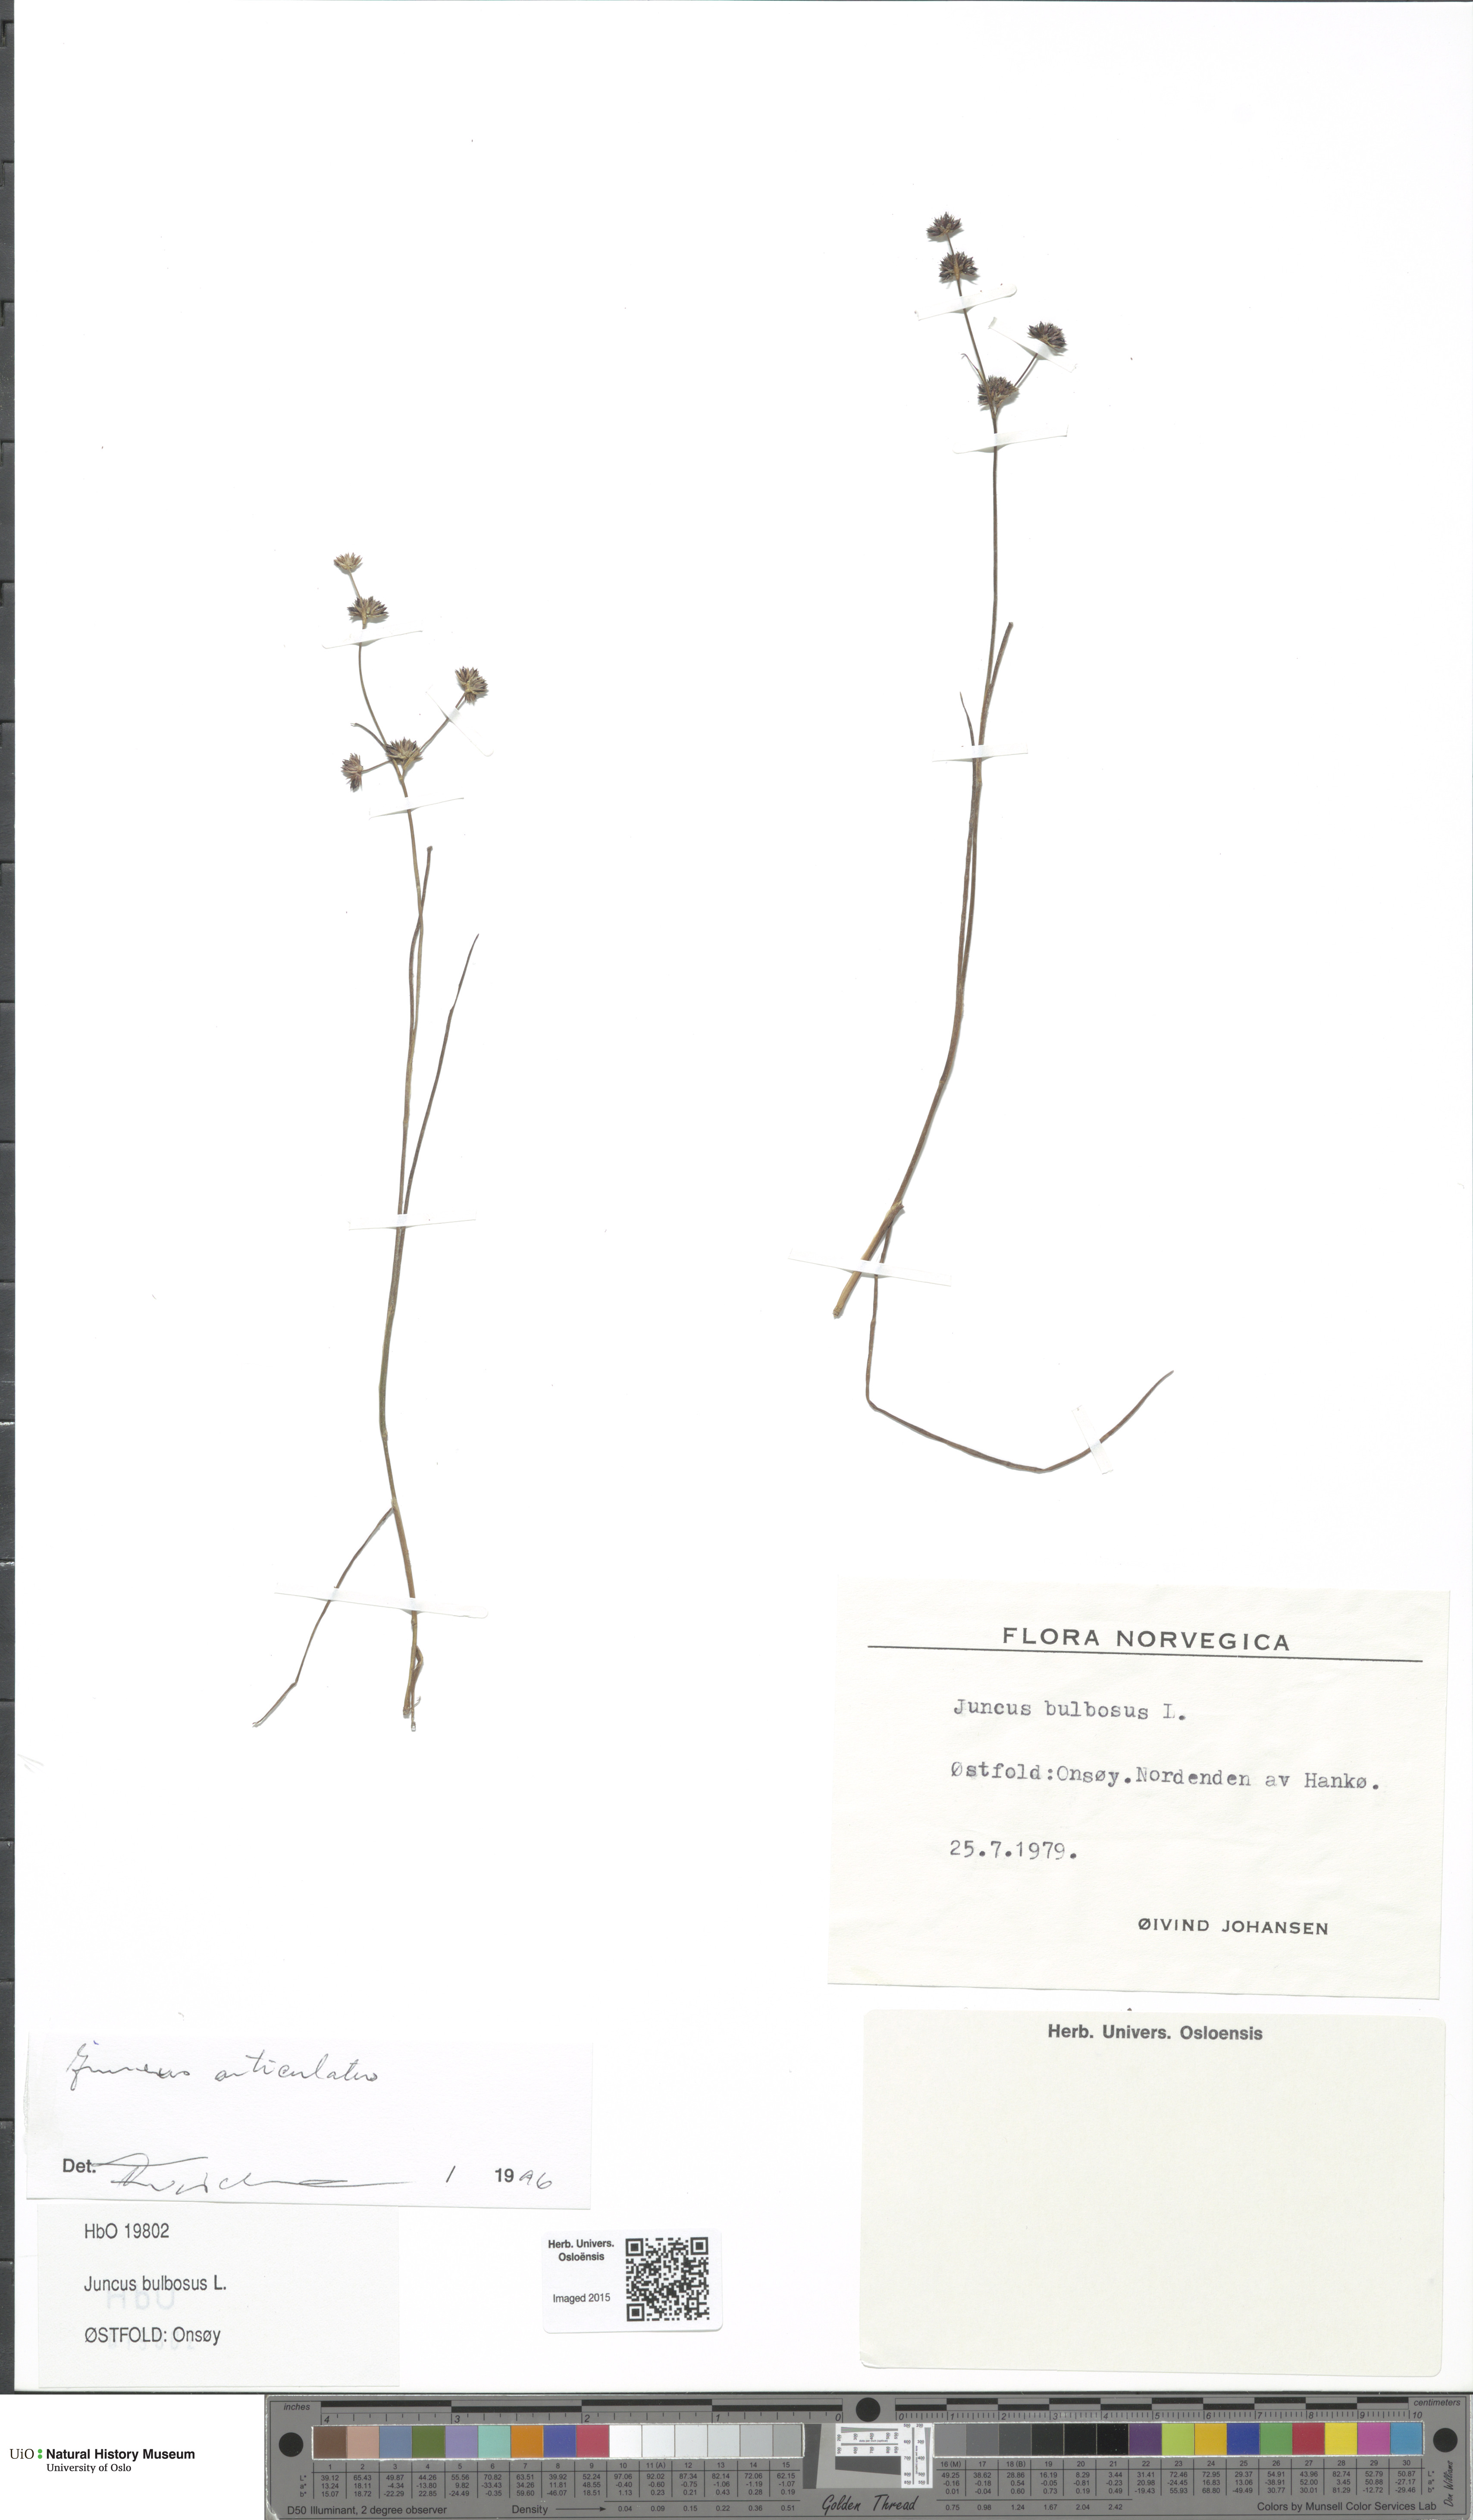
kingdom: Plantae
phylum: Tracheophyta
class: Liliopsida
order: Poales
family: Juncaceae
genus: Juncus
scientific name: Juncus articulatus
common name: Jointed rush
